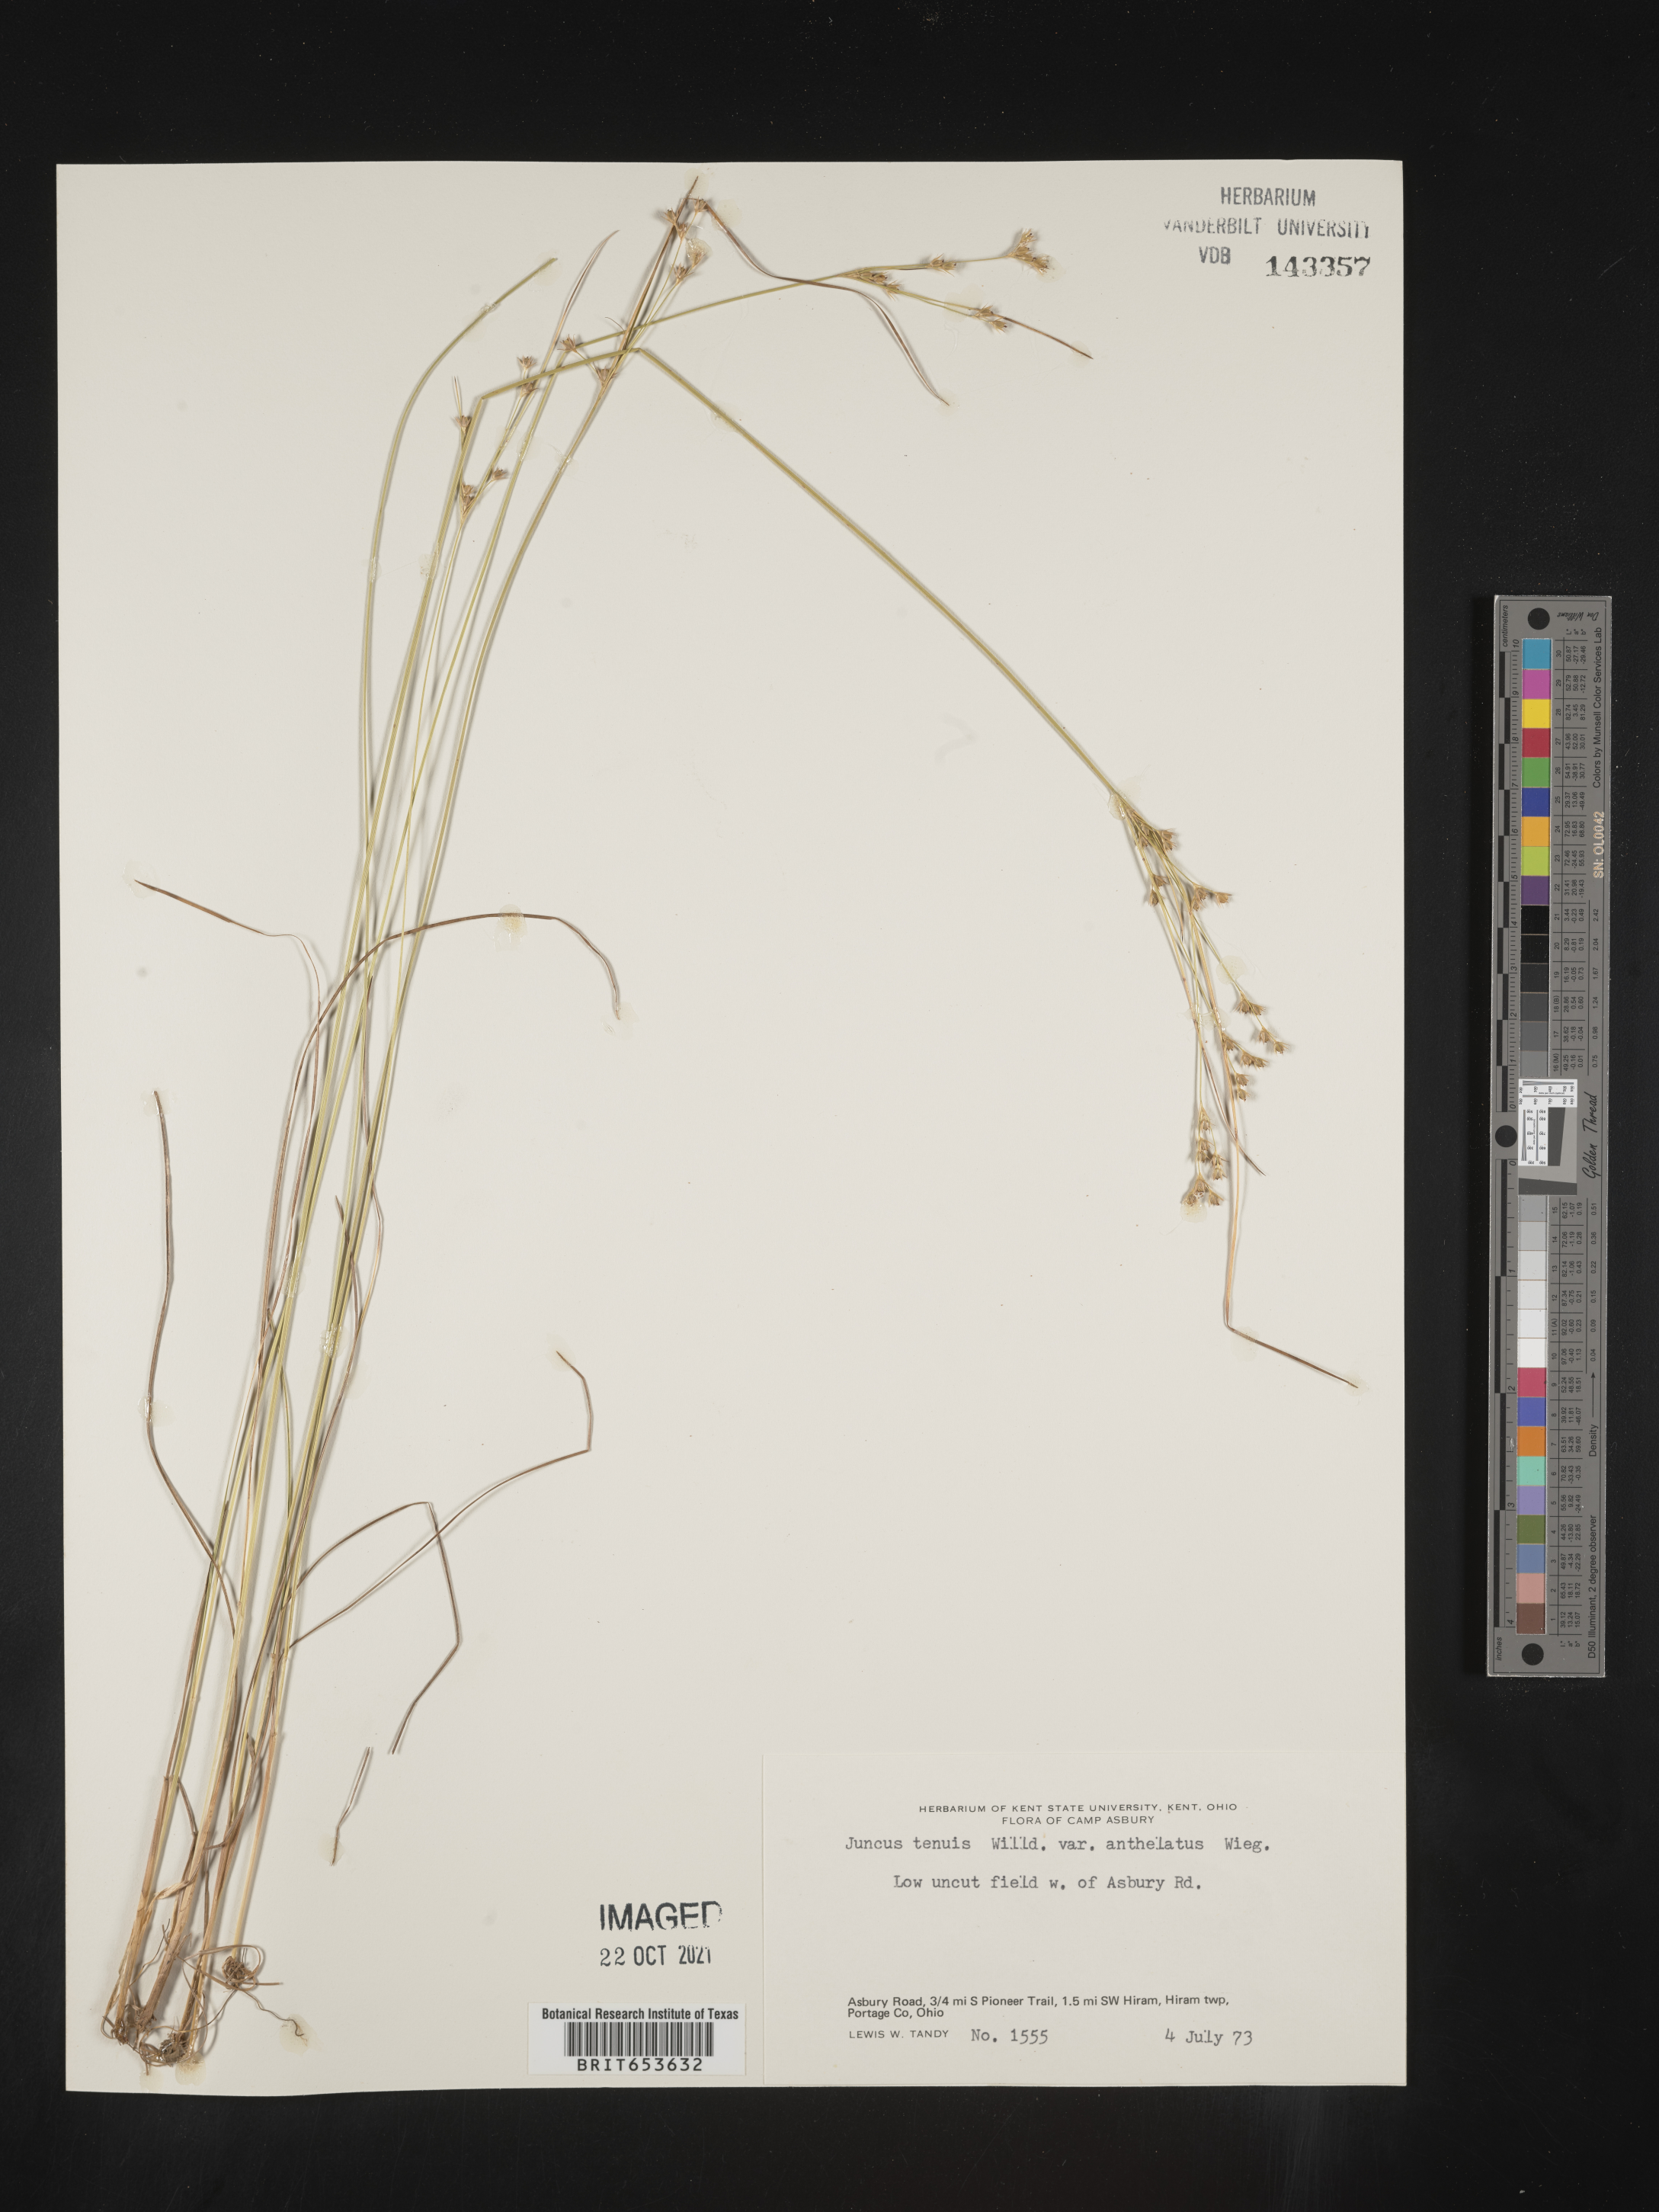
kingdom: Plantae
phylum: Tracheophyta
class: Liliopsida
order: Poales
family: Juncaceae
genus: Juncus
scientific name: Juncus tenuis
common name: Slender rush
